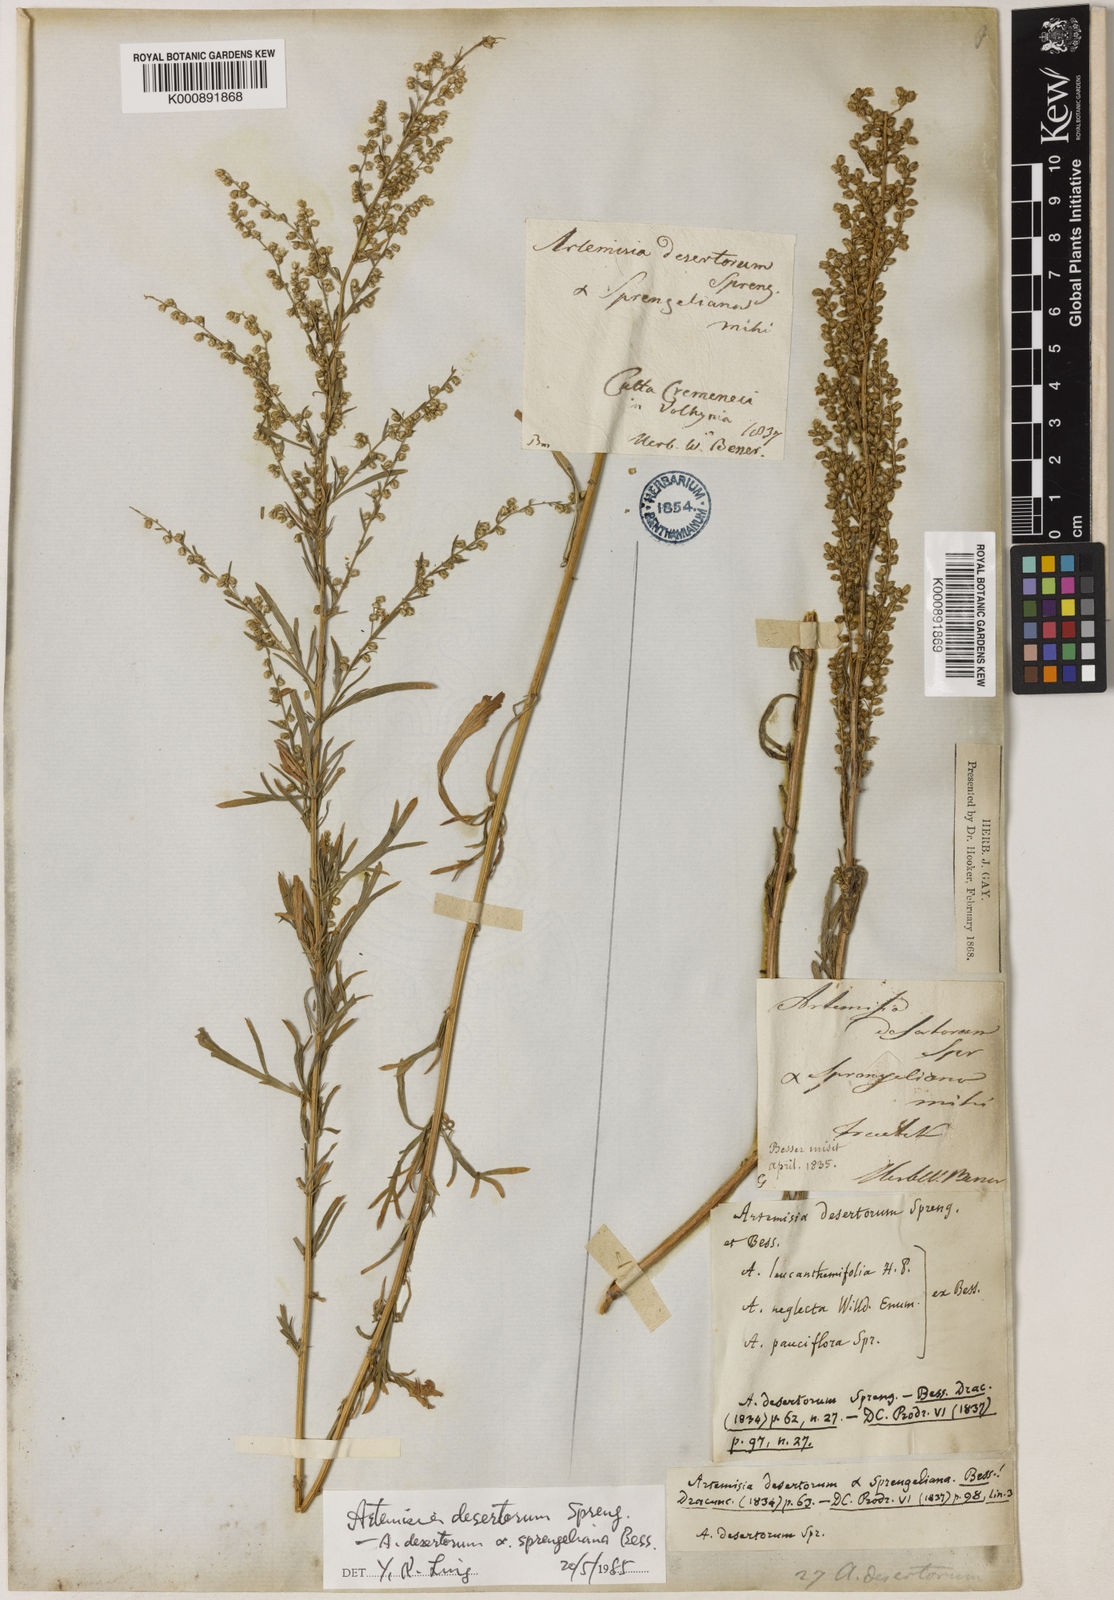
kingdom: Plantae
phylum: Tracheophyta
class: Magnoliopsida
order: Asterales
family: Asteraceae
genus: Artemisia
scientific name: Artemisia pubescens
